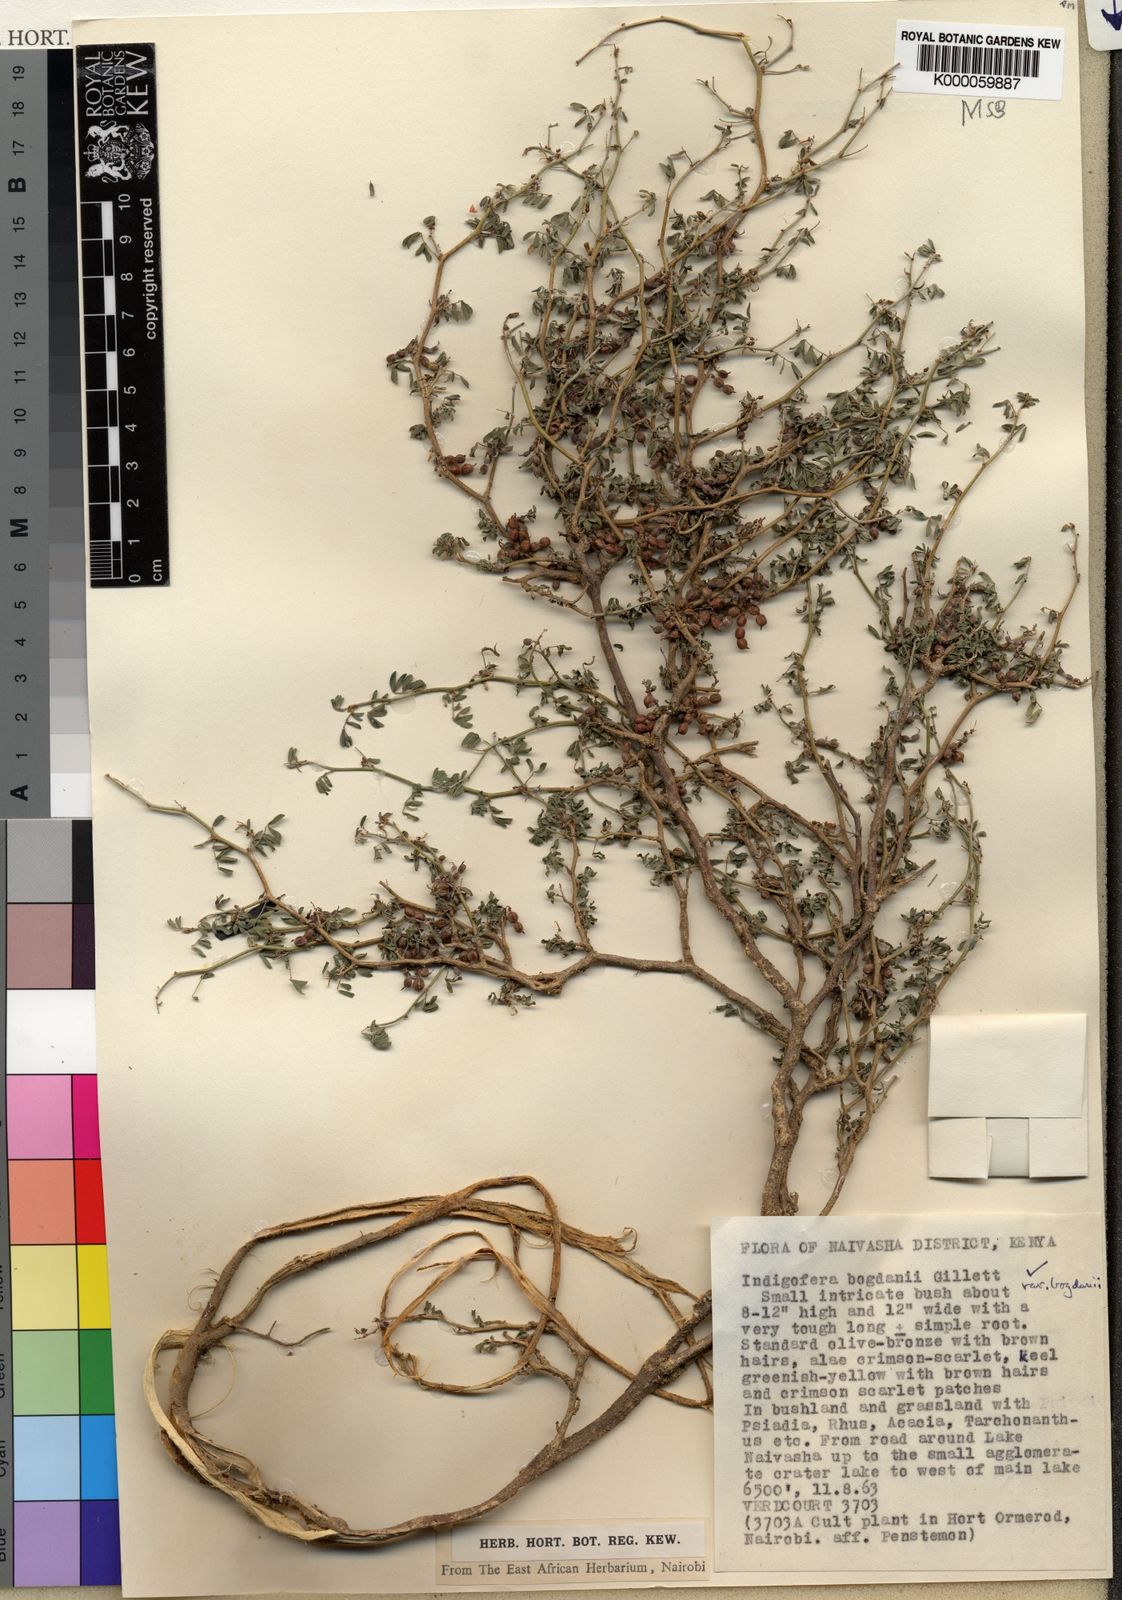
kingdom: Plantae
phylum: Tracheophyta
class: Magnoliopsida
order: Fabales
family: Fabaceae
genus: Indigofera
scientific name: Indigofera bogdanii
